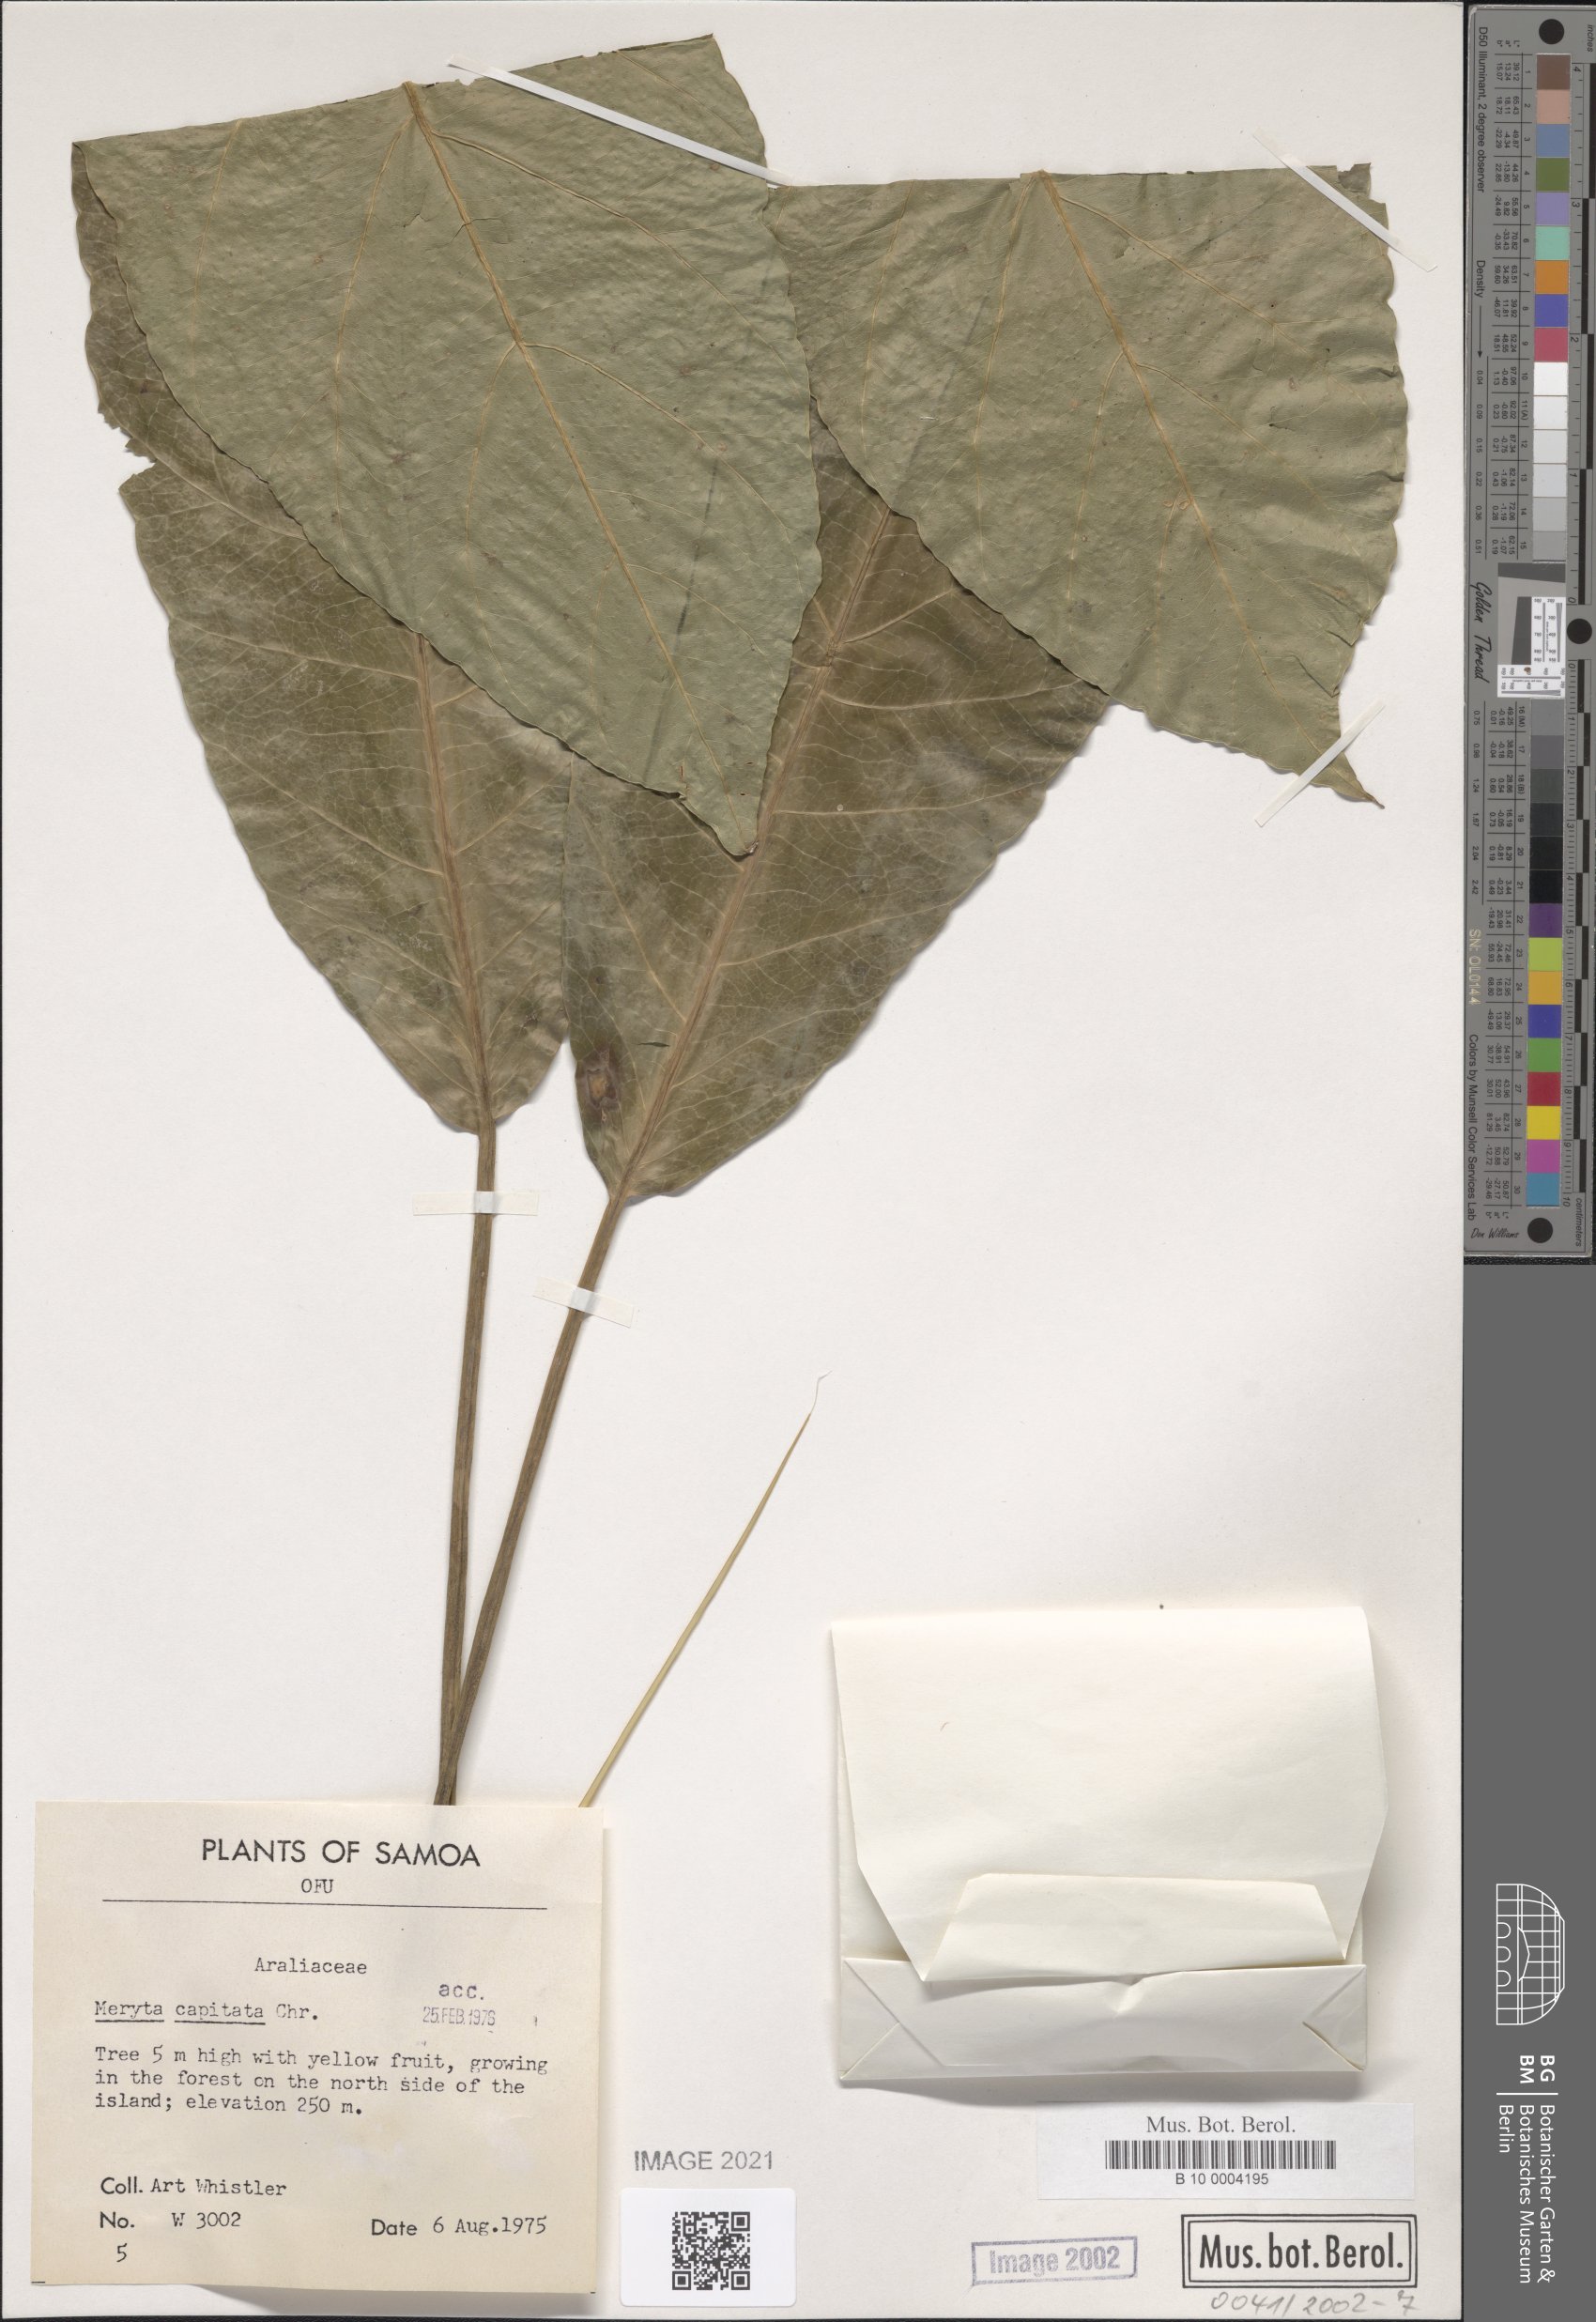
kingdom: Plantae
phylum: Tracheophyta
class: Magnoliopsida
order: Apiales
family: Araliaceae
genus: Meryta
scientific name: Meryta capitata
